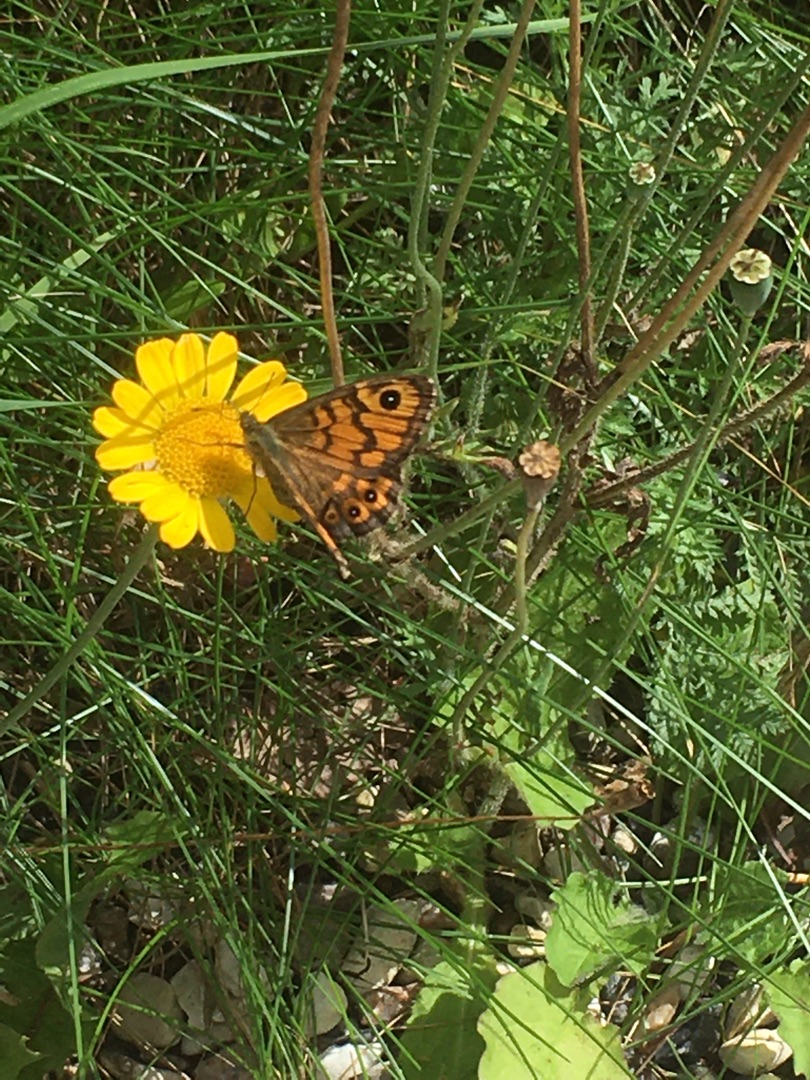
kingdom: Animalia
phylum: Arthropoda
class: Insecta
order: Lepidoptera
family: Nymphalidae
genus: Pararge
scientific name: Pararge Lasiommata megera
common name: Vejrandøje
